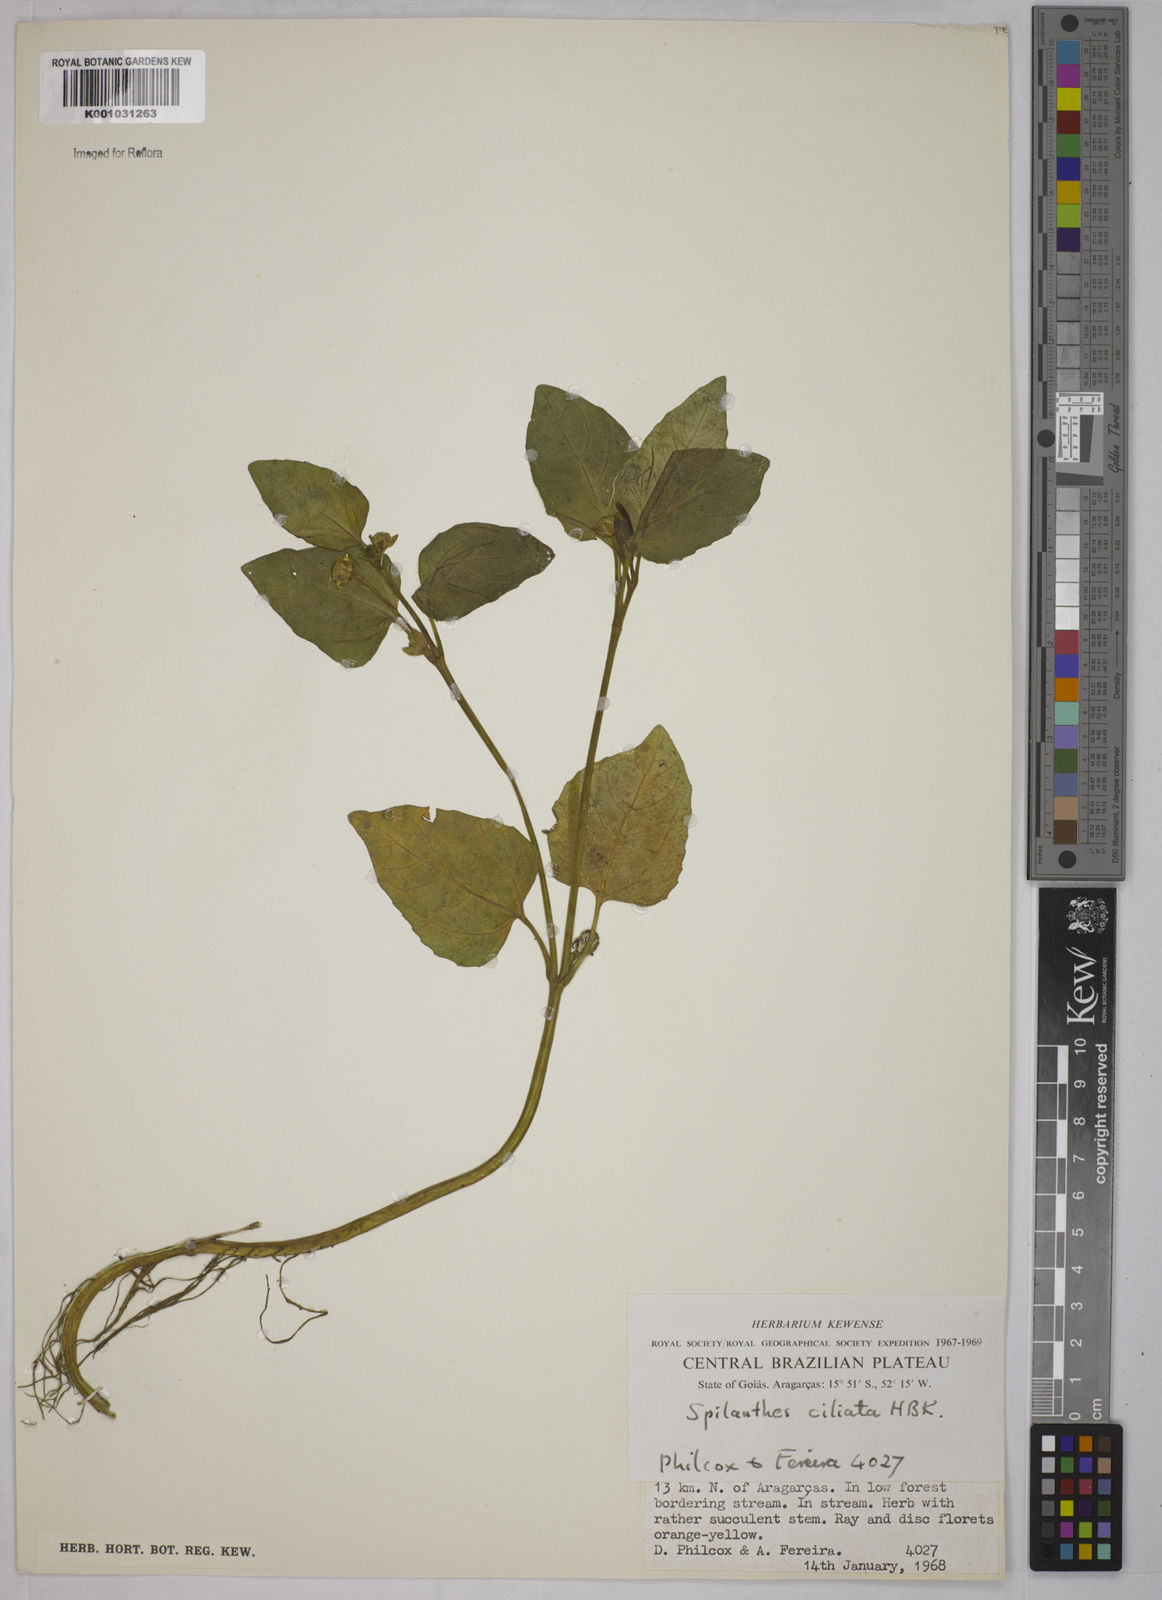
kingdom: Plantae
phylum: Tracheophyta
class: Magnoliopsida
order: Asterales
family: Asteraceae
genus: Acmella
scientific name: Acmella ciliata
